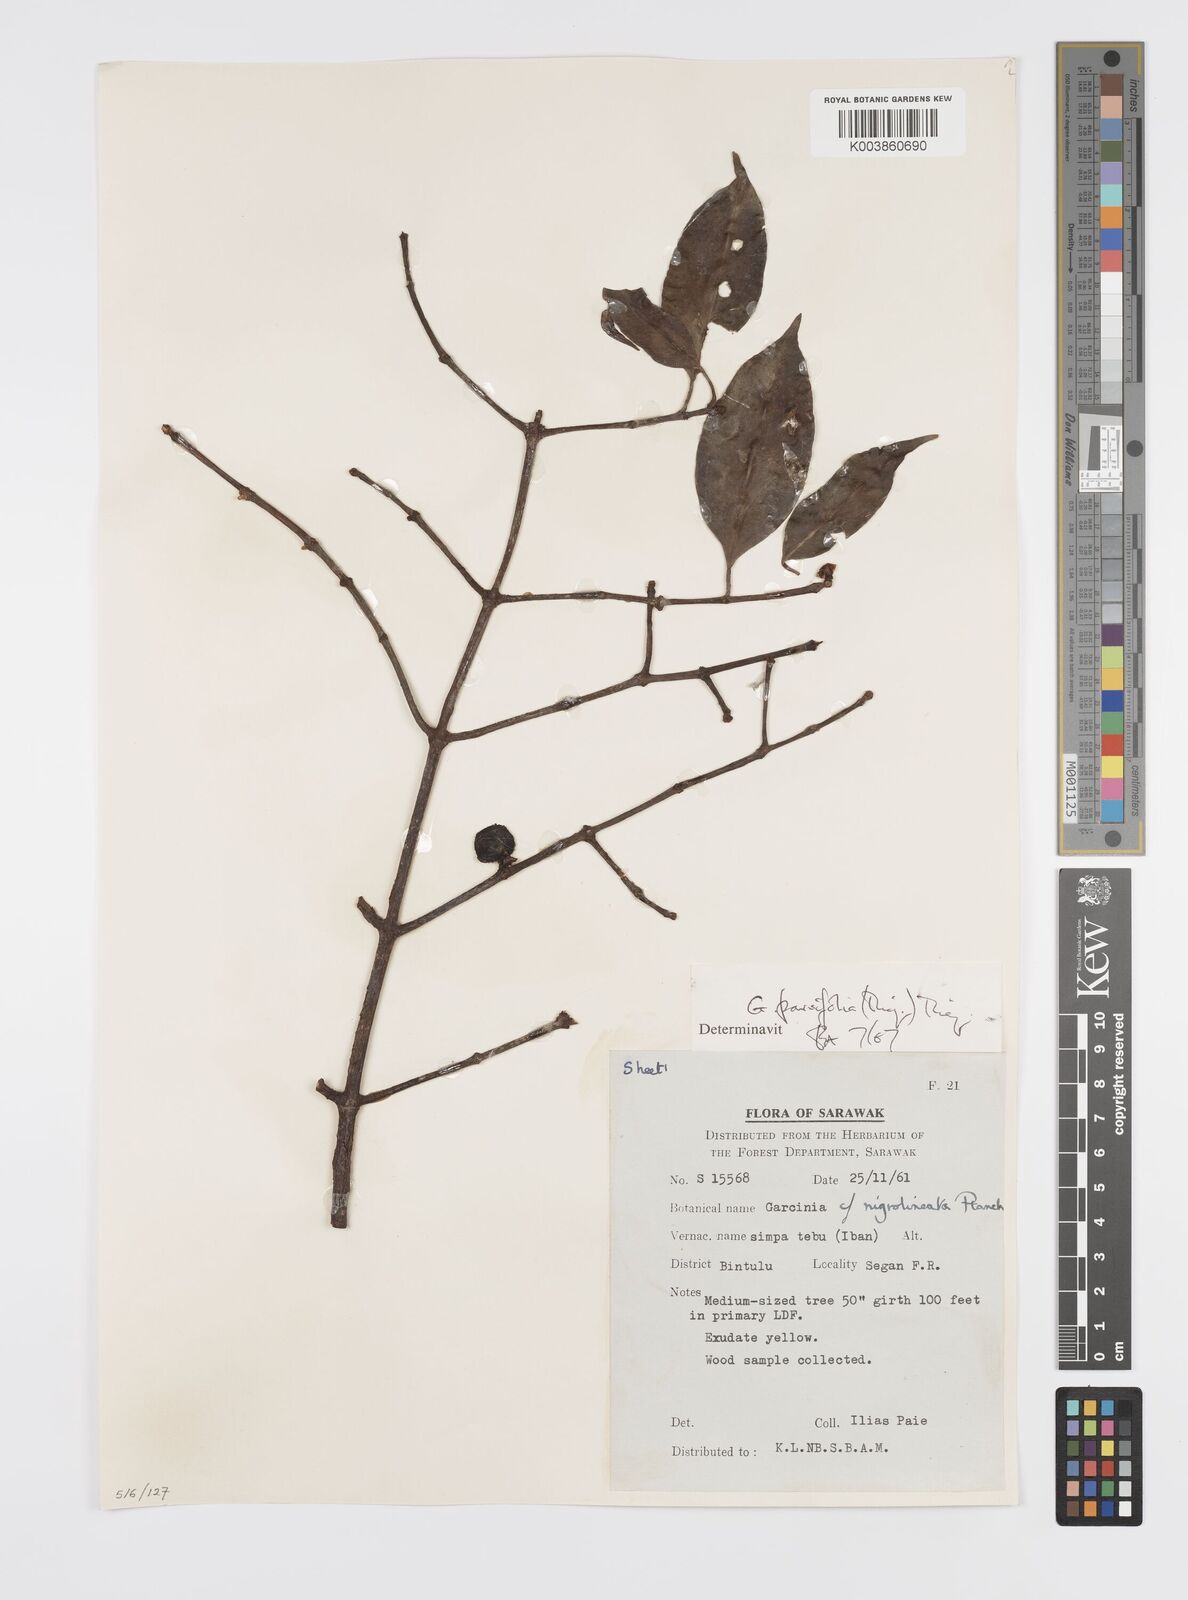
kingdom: Plantae
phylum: Tracheophyta
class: Magnoliopsida
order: Malpighiales
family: Clusiaceae
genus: Garcinia
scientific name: Garcinia parvifolia
